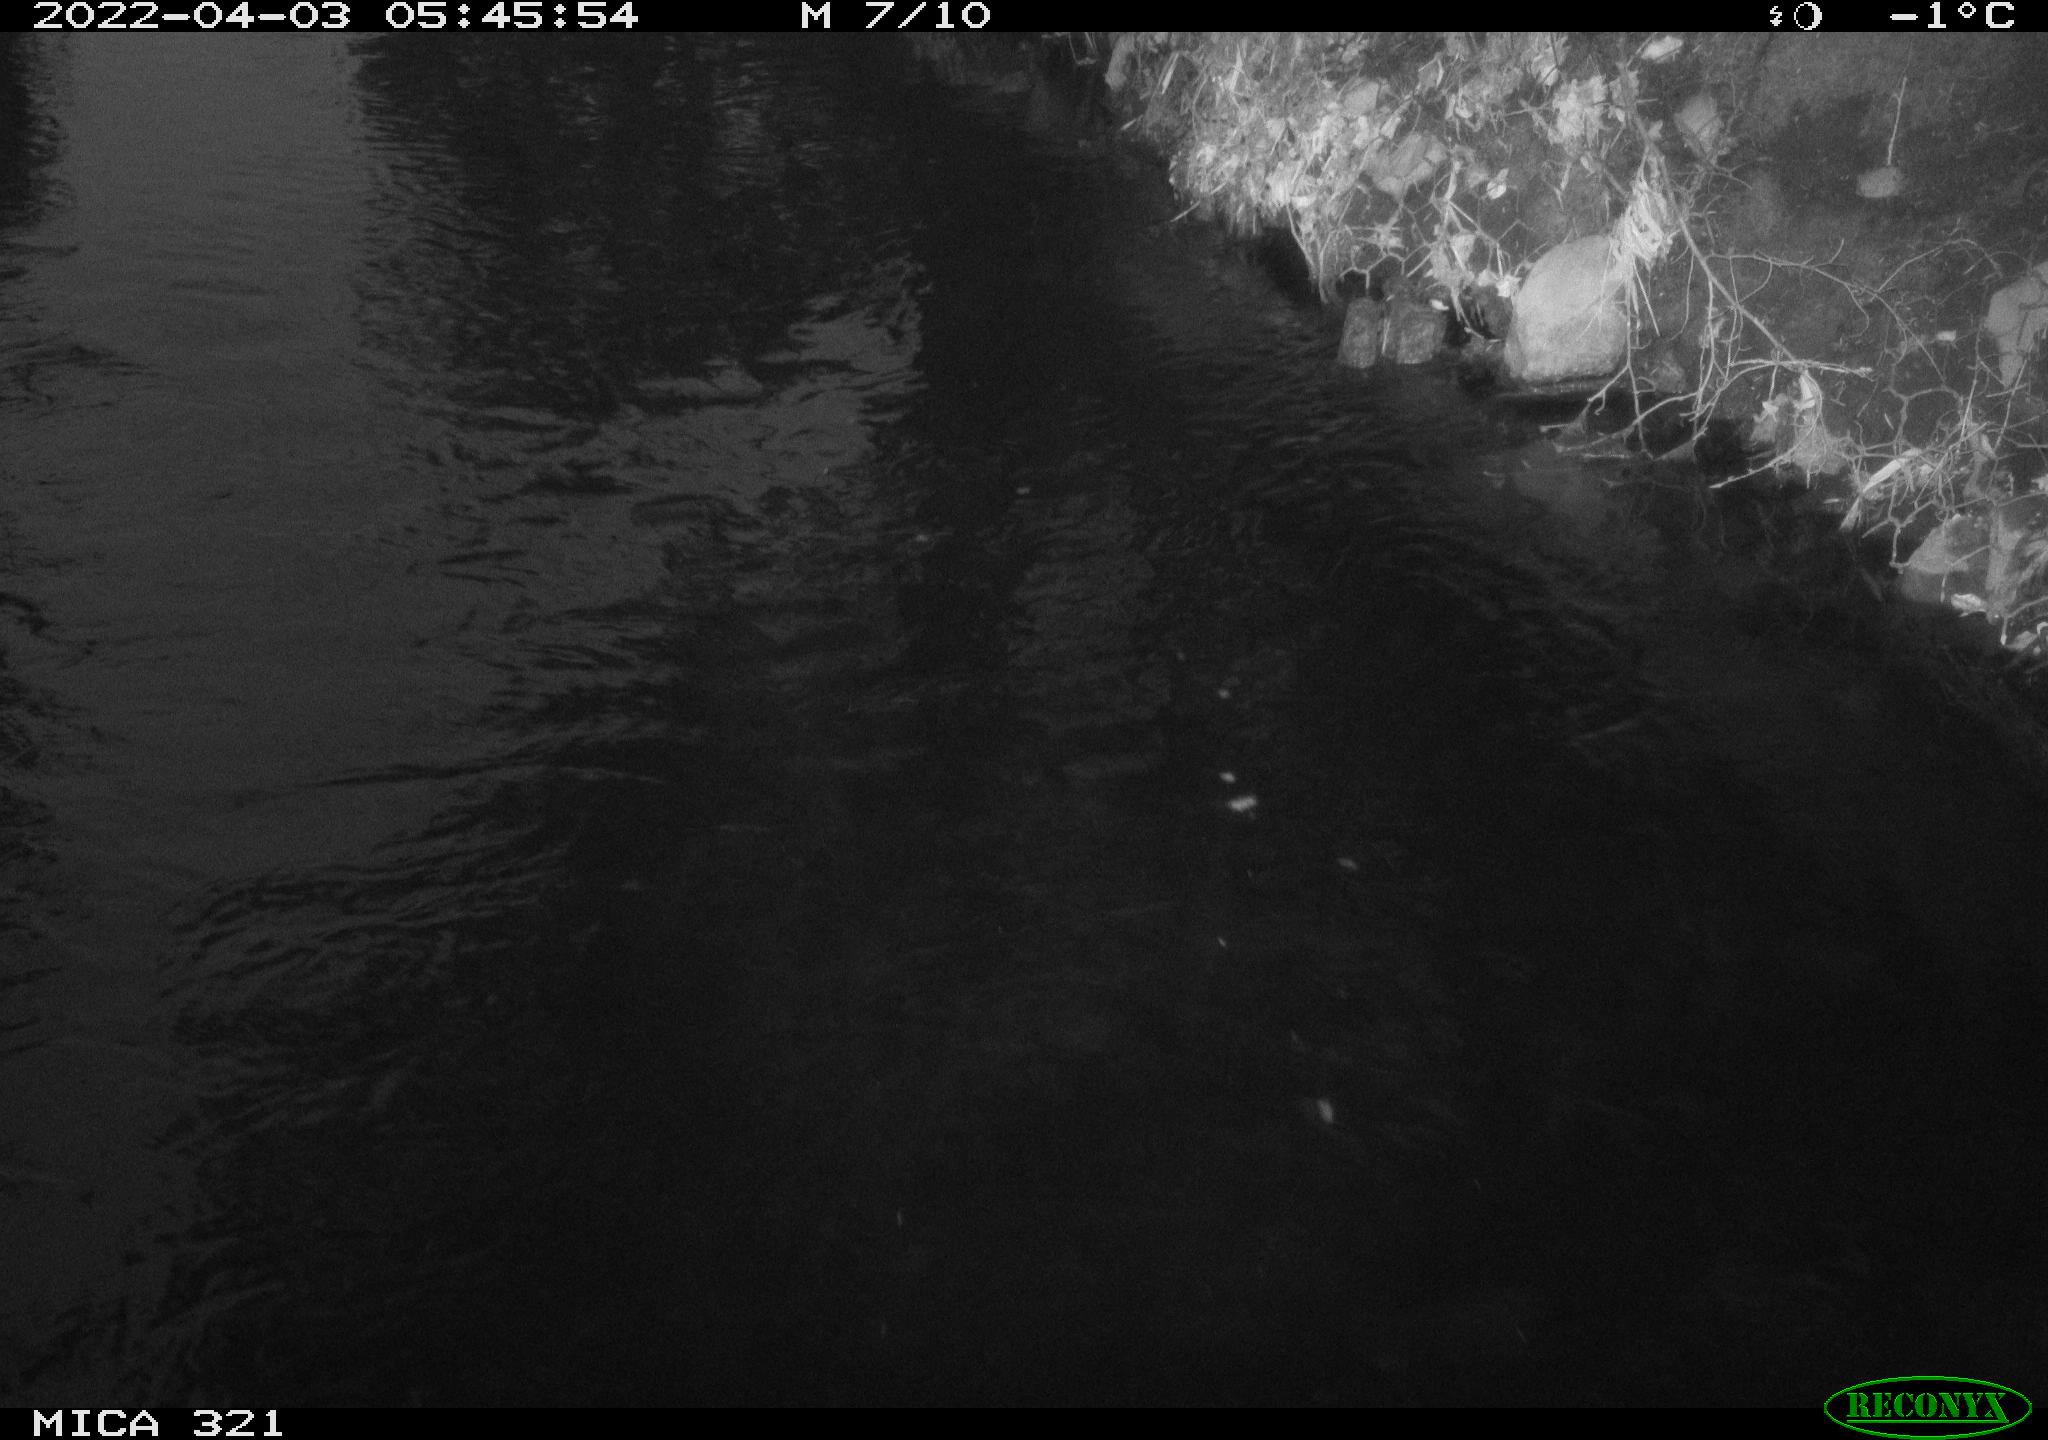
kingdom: Animalia
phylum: Chordata
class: Aves
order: Anseriformes
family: Anatidae
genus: Anas
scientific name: Anas platyrhynchos
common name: Mallard
